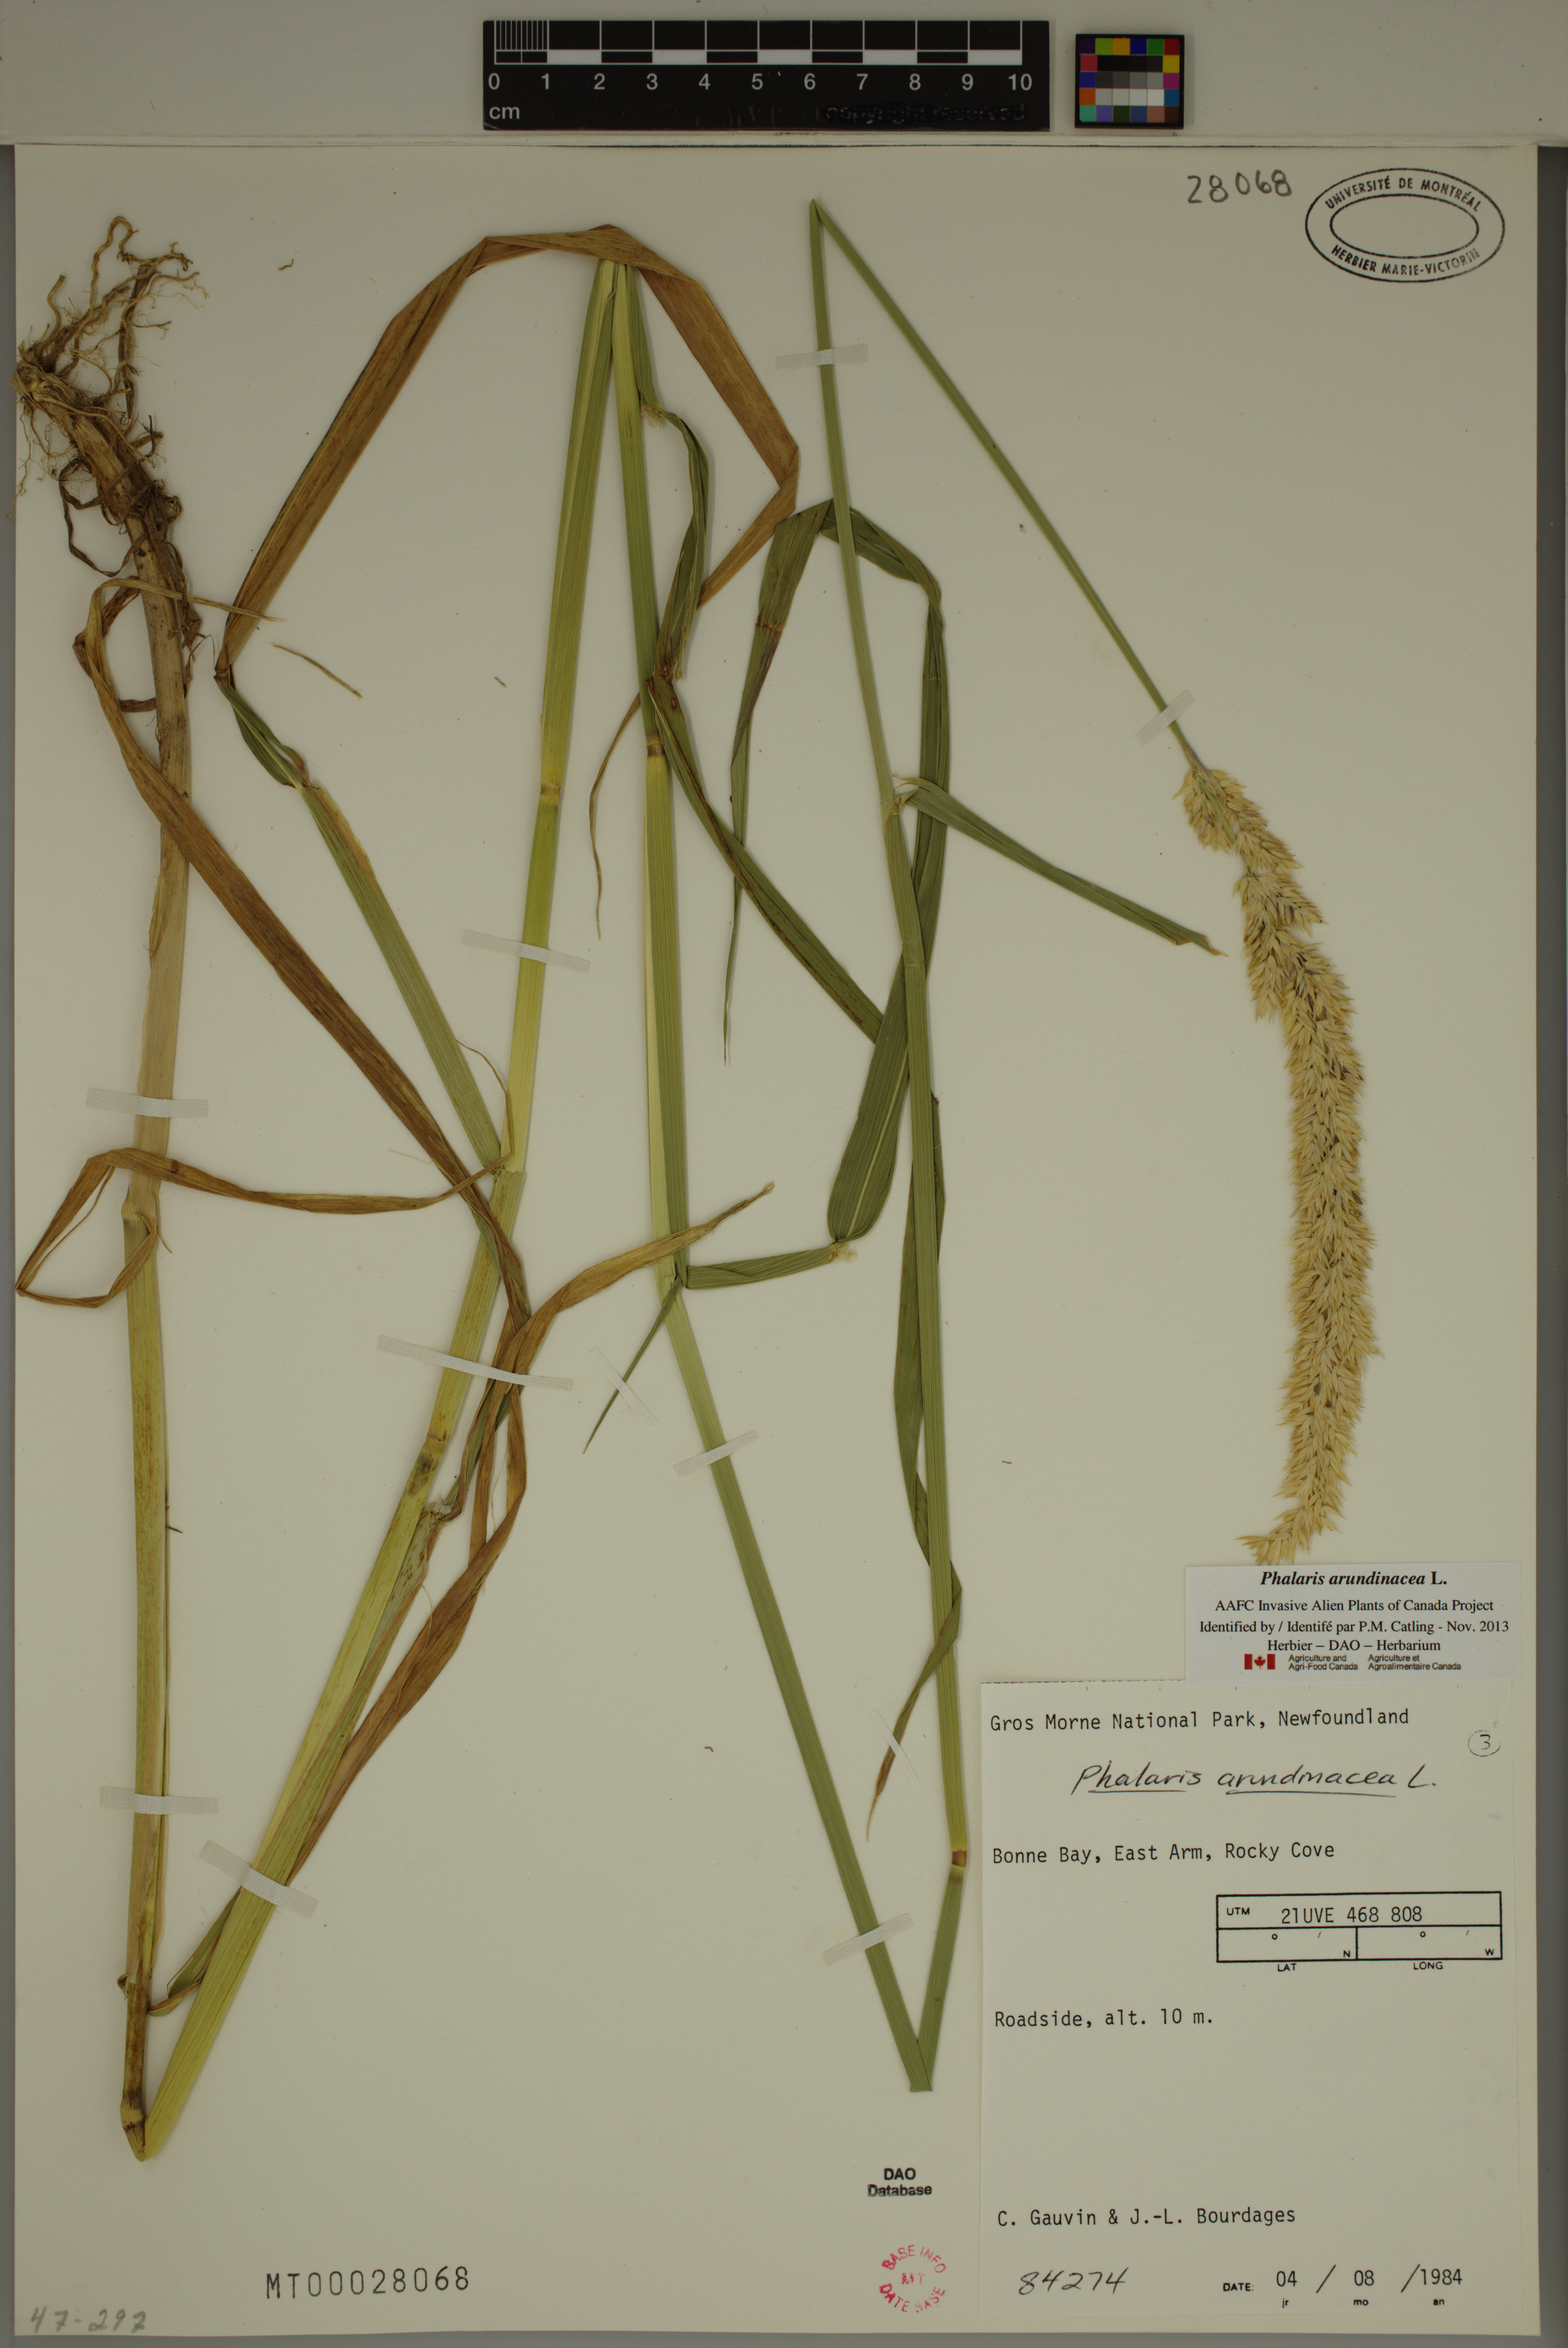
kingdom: Plantae
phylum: Tracheophyta
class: Liliopsida
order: Poales
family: Poaceae
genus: Phalaris
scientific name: Phalaris arundinacea
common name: Reed canary-grass
